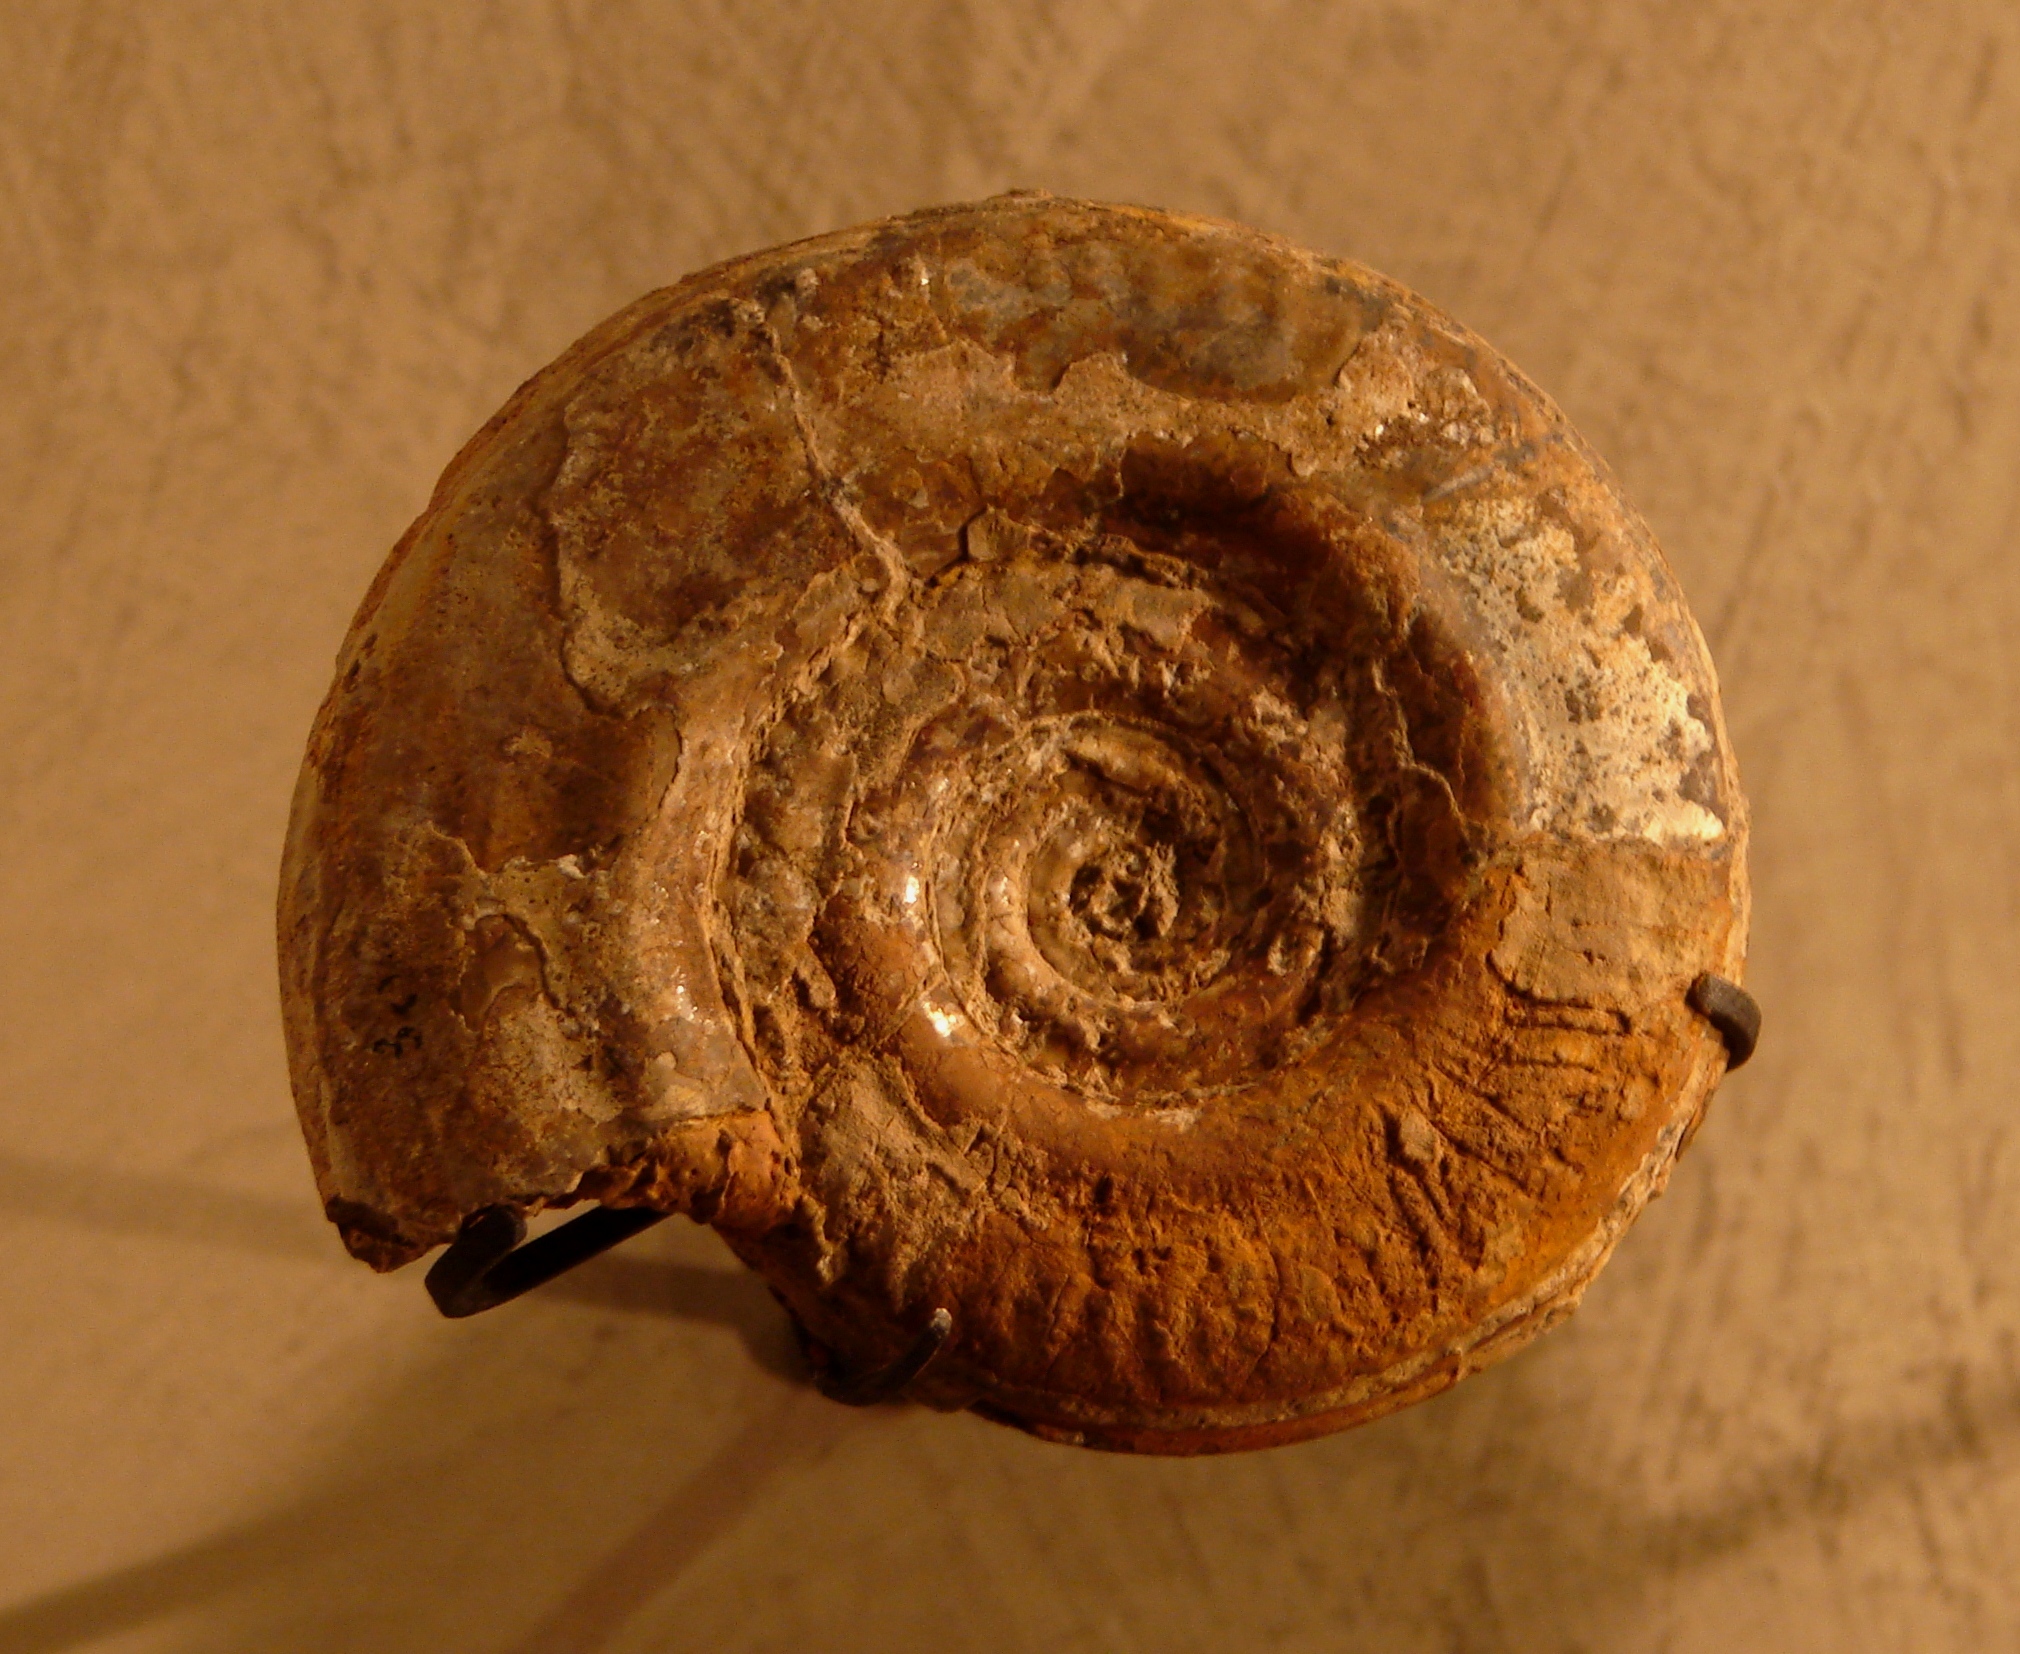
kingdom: Animalia
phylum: Mollusca
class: Cephalopoda
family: Hildoceratidae
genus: Hildoceras
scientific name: Hildoceras bifrons
